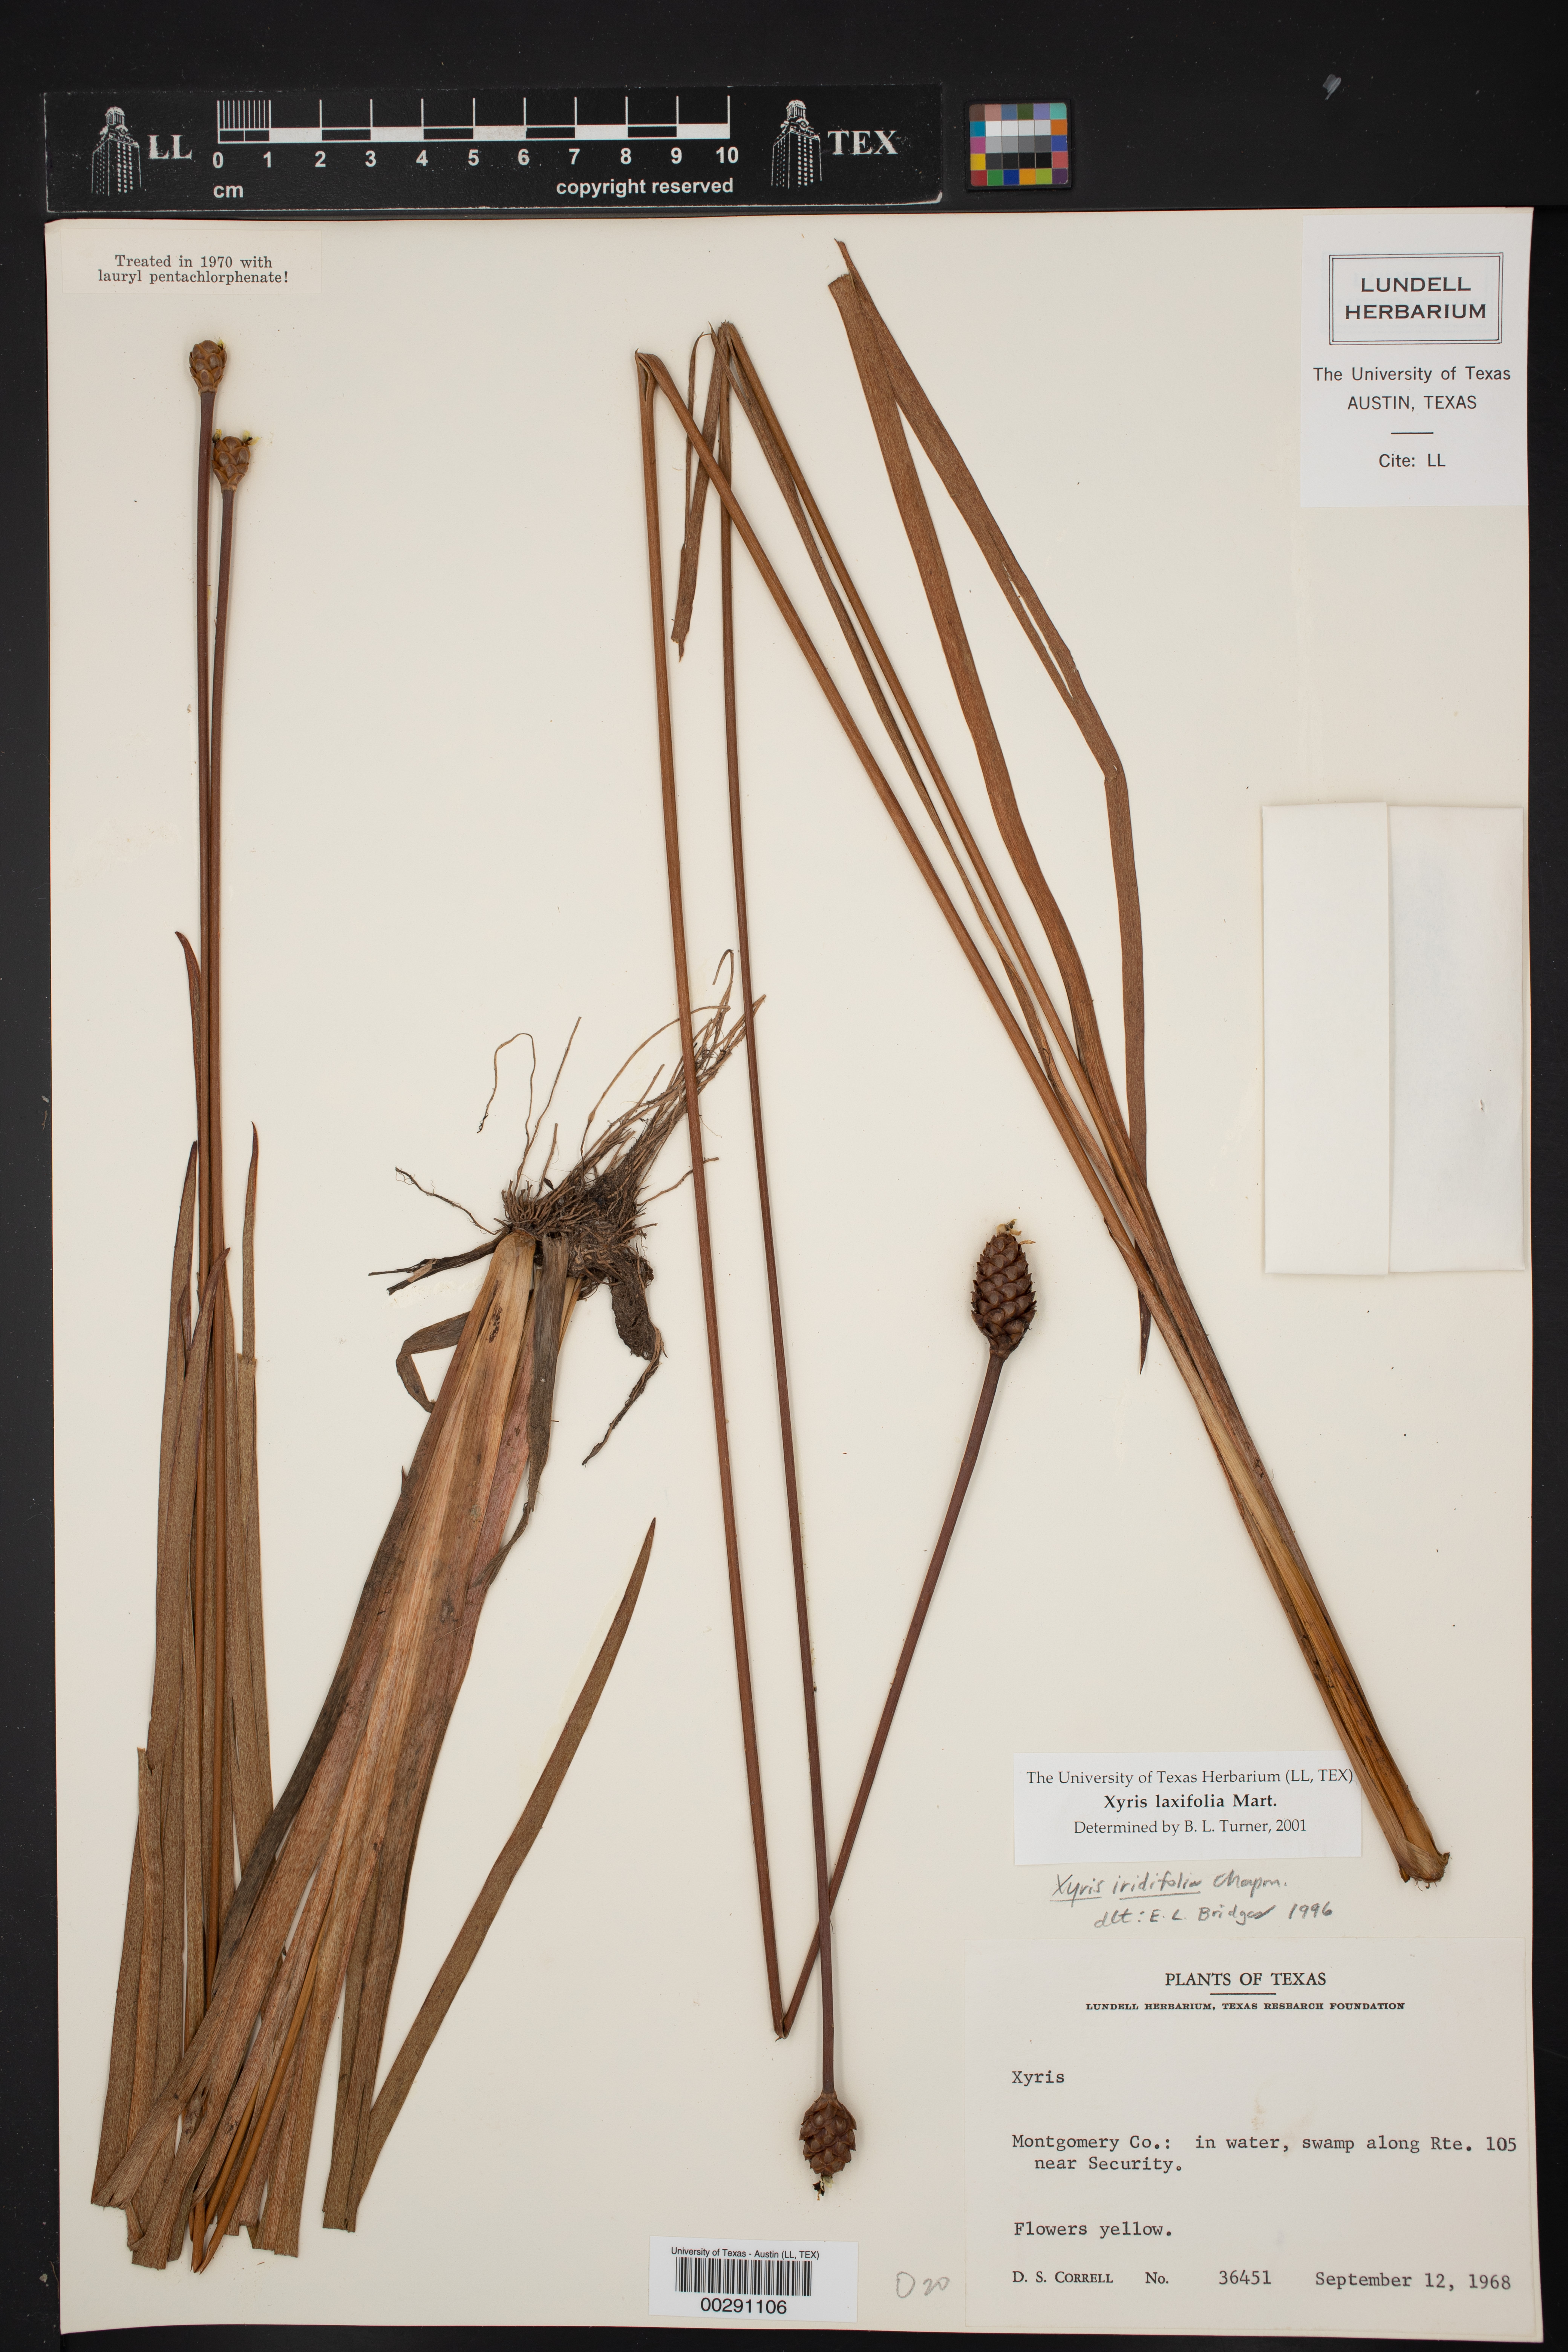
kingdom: Plantae
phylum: Tracheophyta
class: Liliopsida
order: Poales
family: Xyridaceae
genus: Xyris
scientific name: Xyris laxifolia
